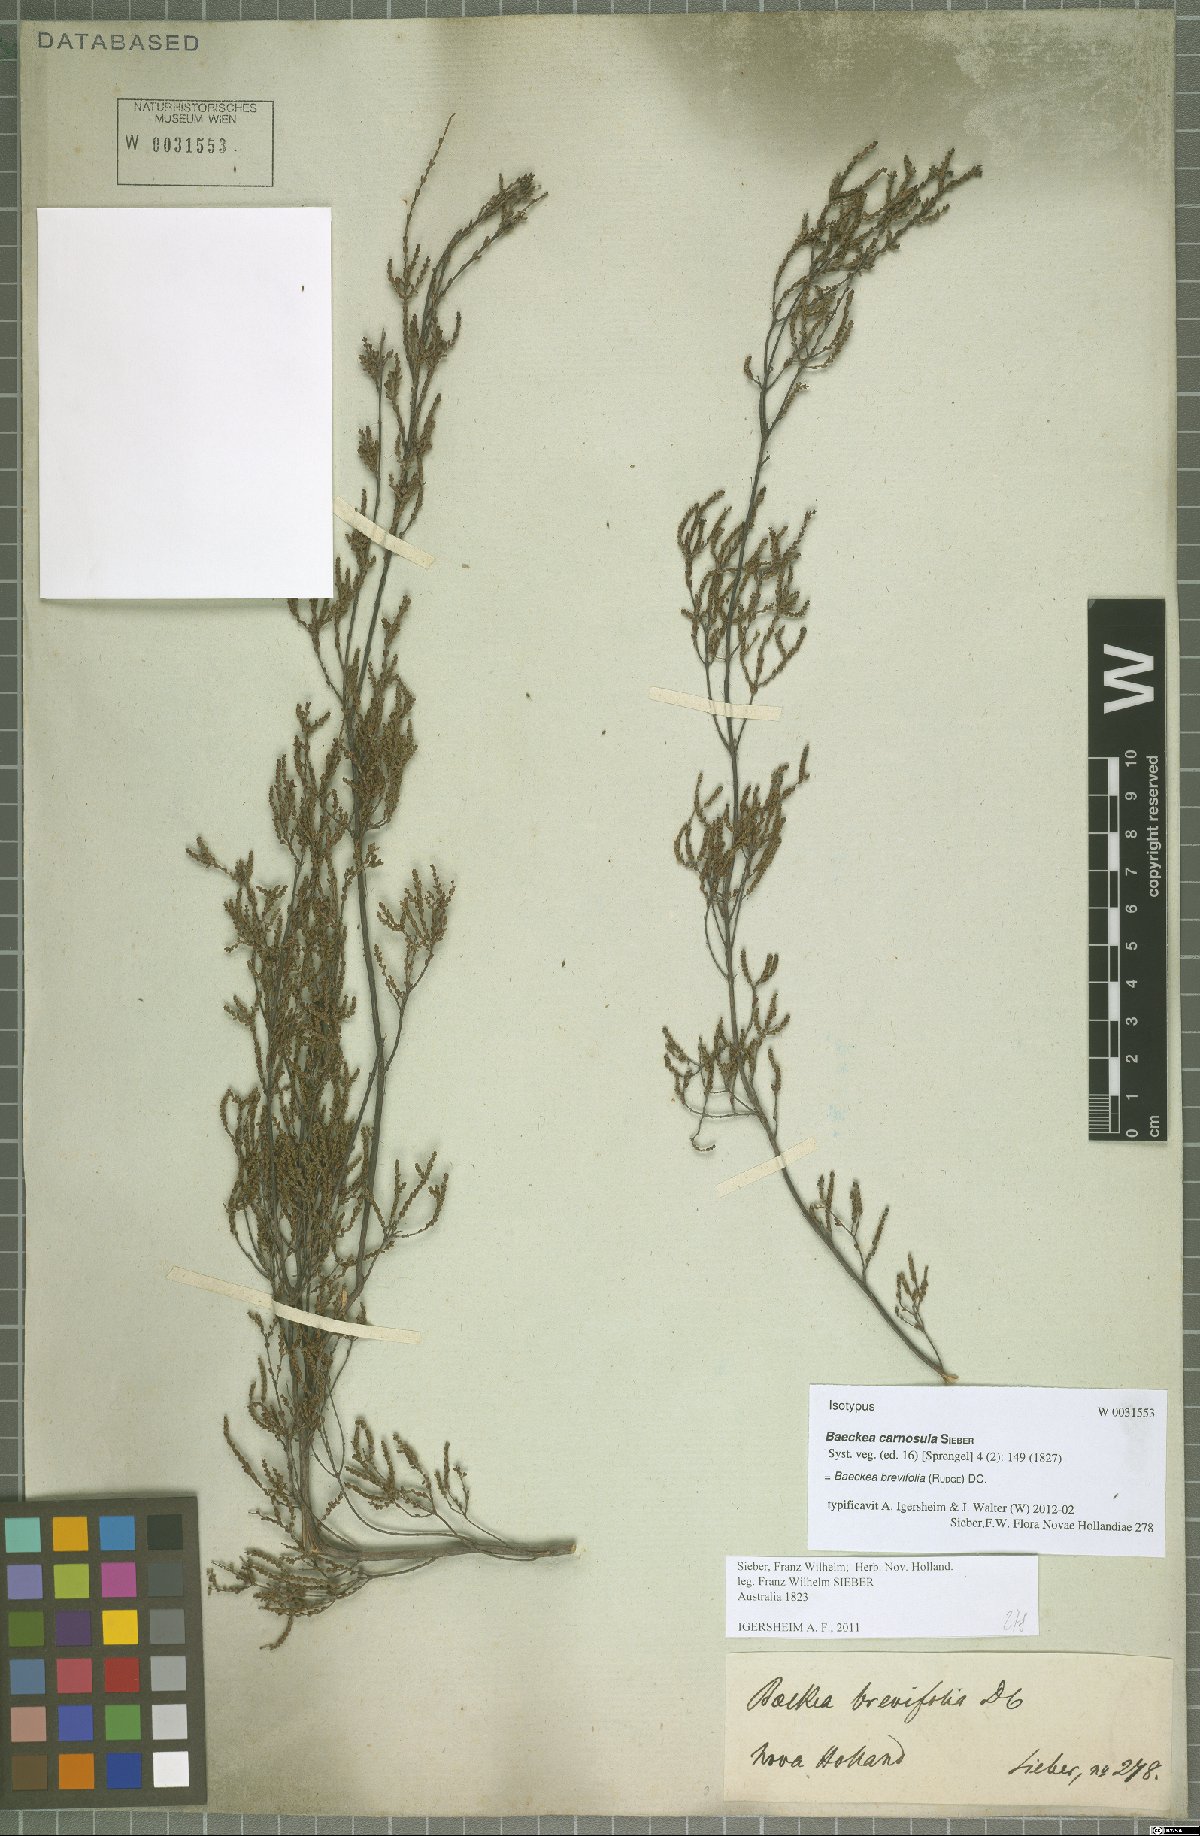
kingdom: Plantae
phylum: Tracheophyta
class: Magnoliopsida
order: Myrtales
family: Myrtaceae
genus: Baeckea
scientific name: Baeckea brevifolia
